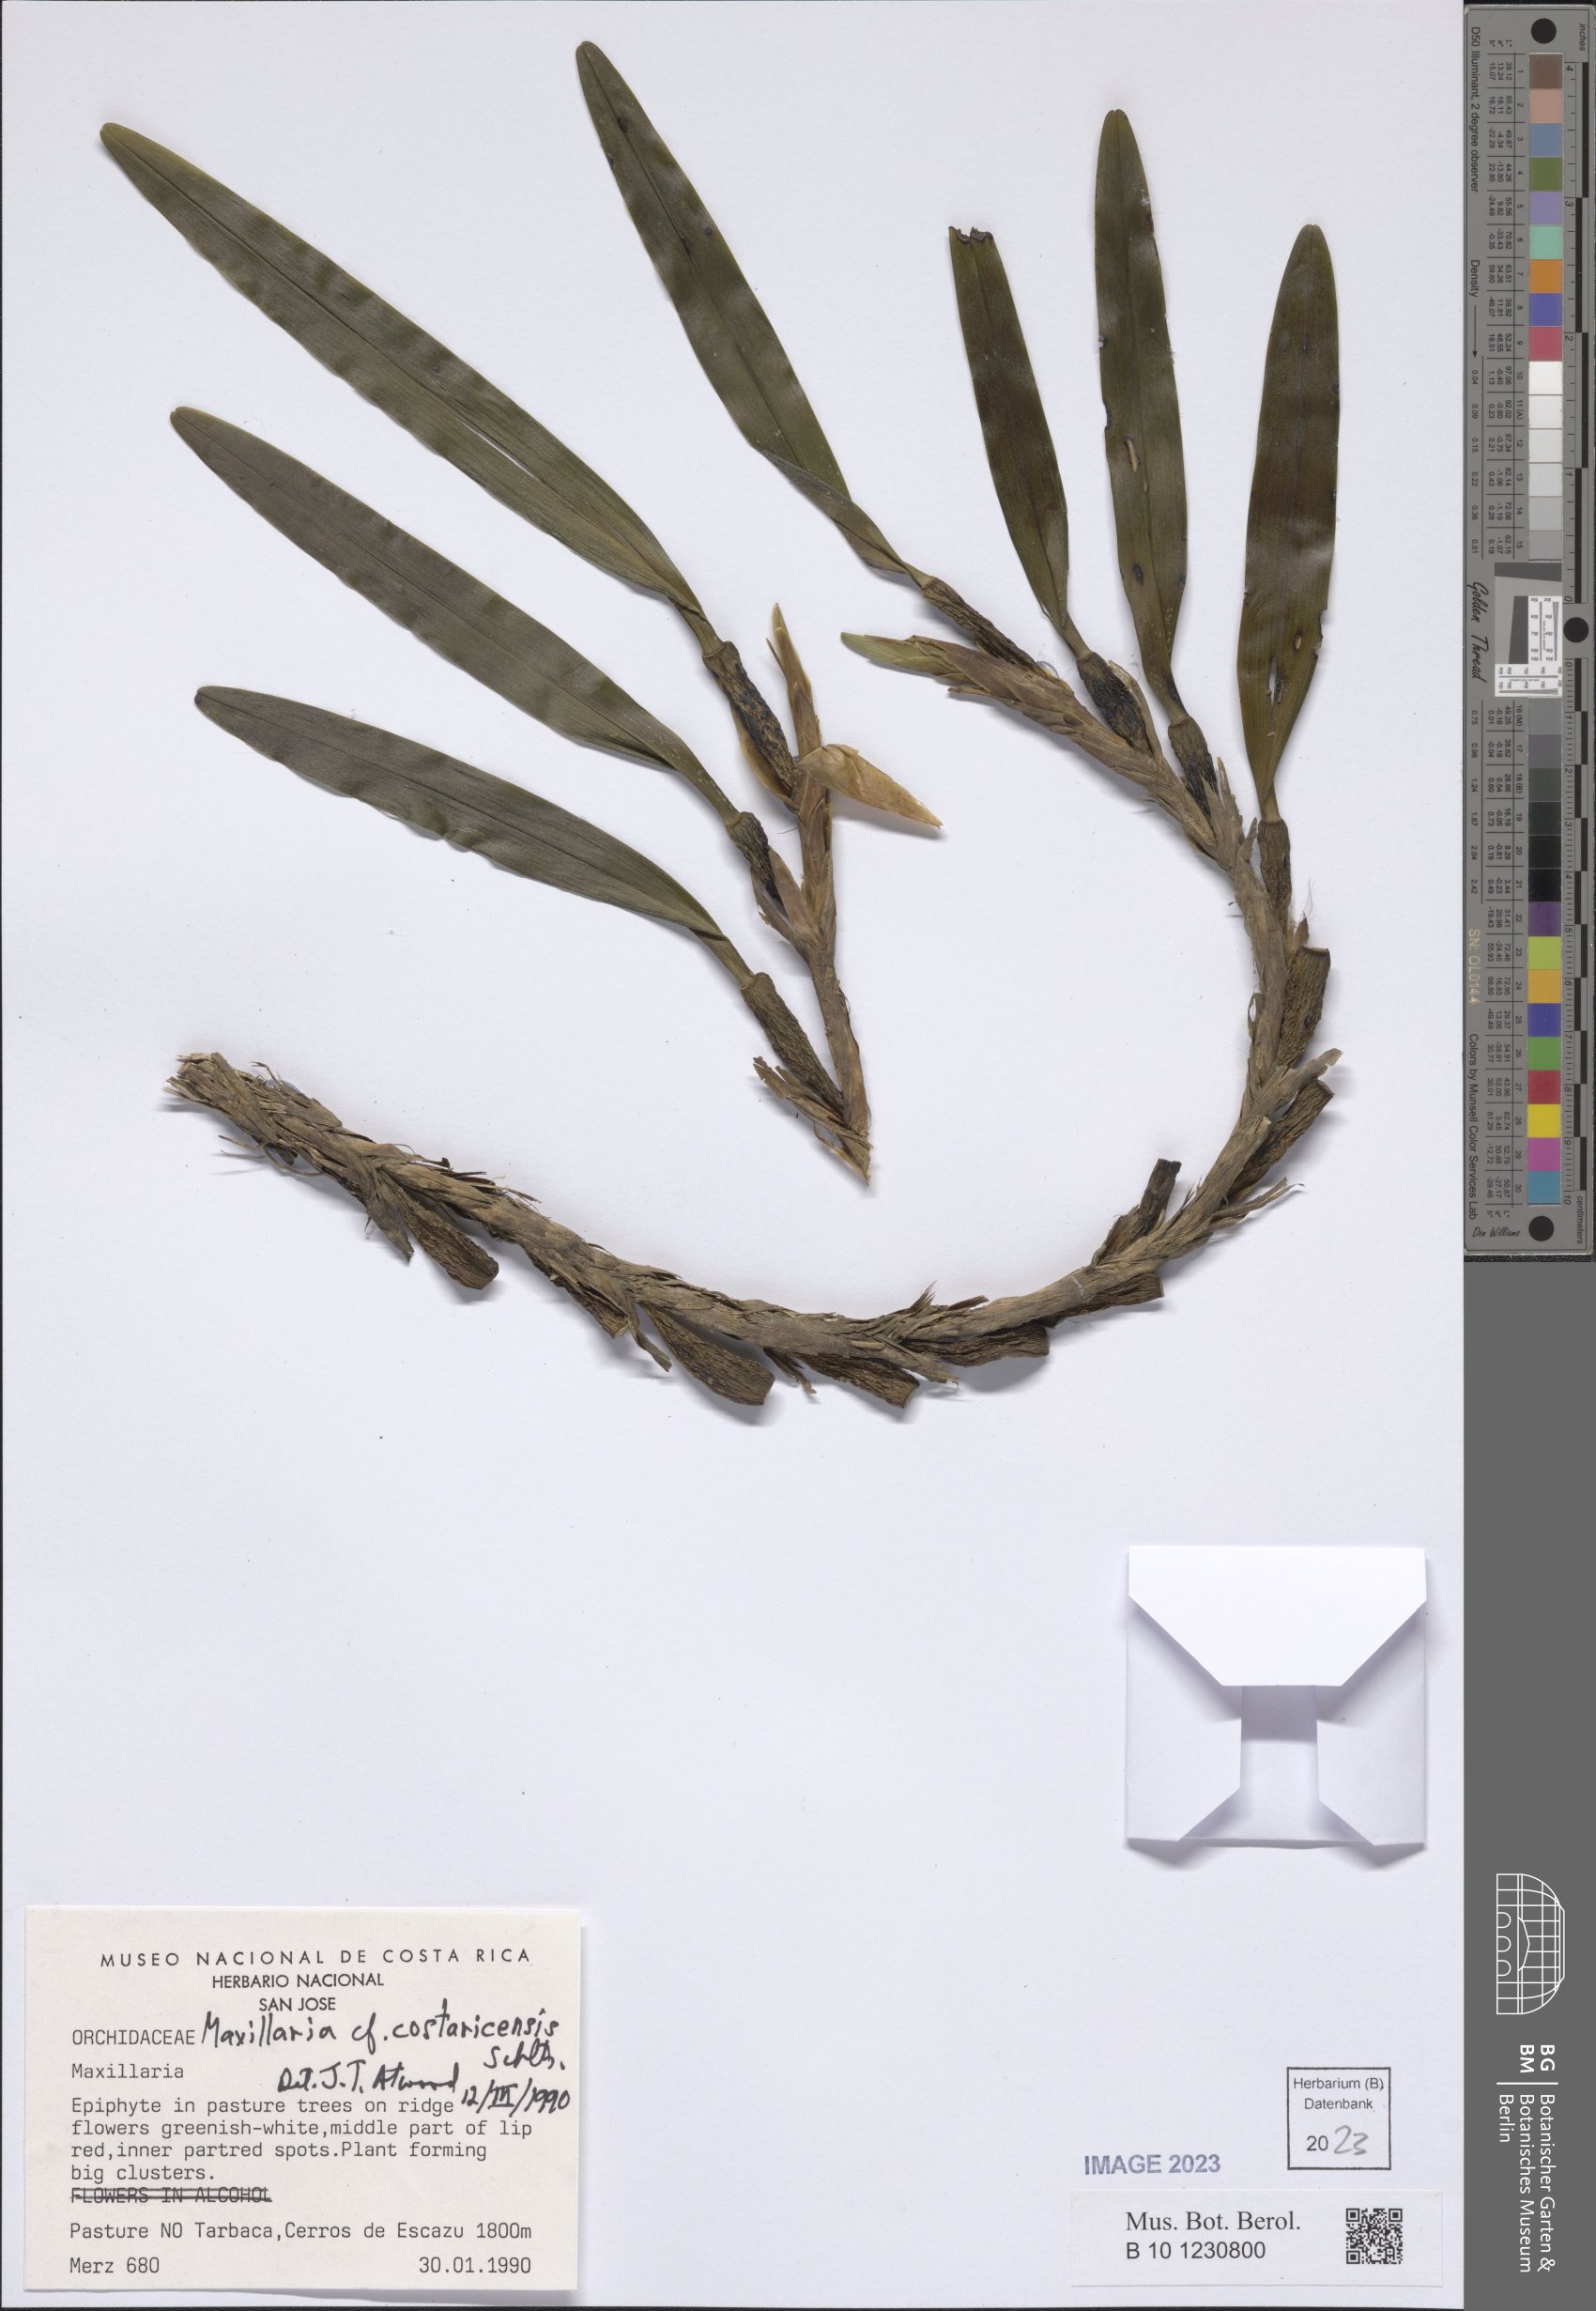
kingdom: Plantae
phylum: Tracheophyta
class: Liliopsida
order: Asparagales
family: Orchidaceae
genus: Maxillaria
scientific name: Maxillaria costaricensis
